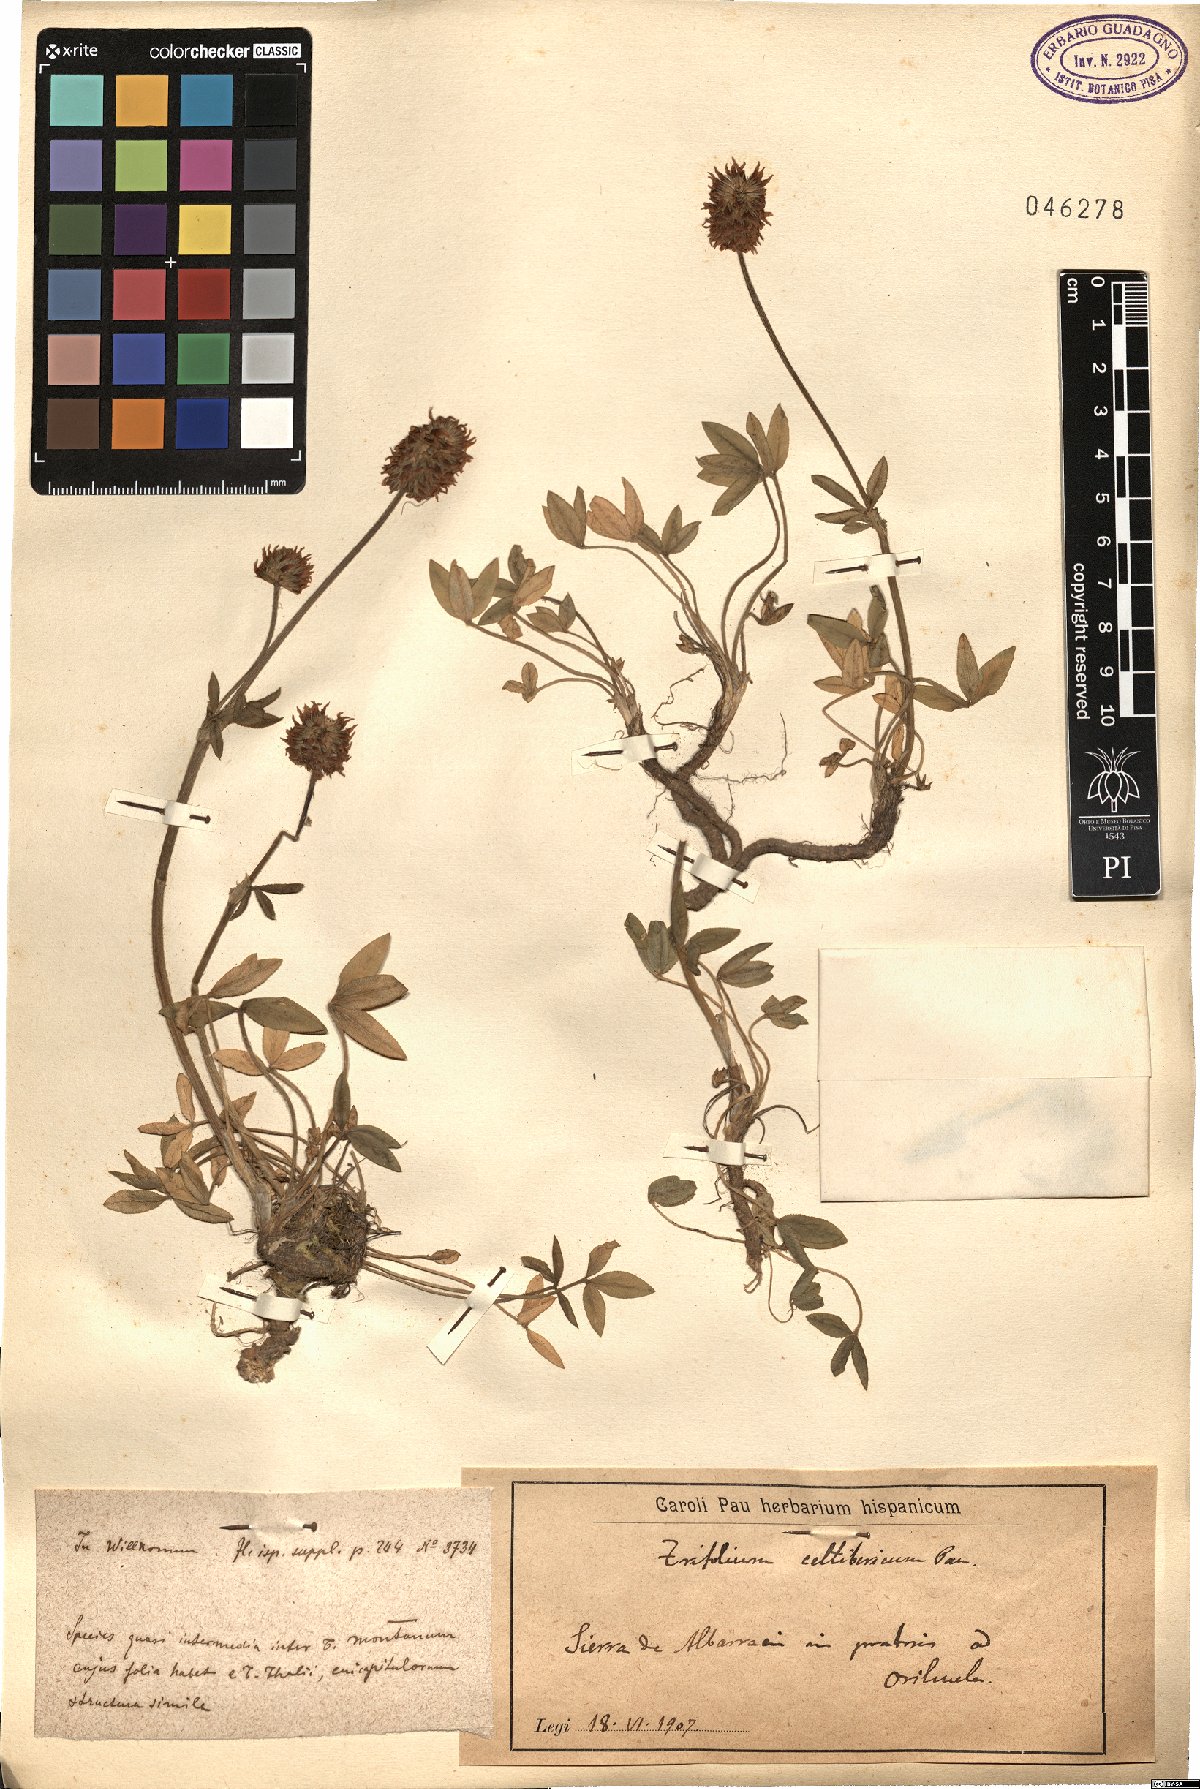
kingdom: Plantae
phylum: Tracheophyta
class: Magnoliopsida
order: Fabales
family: Fabaceae
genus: Trifolium
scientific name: Trifolium montanum
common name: Mountain clover
